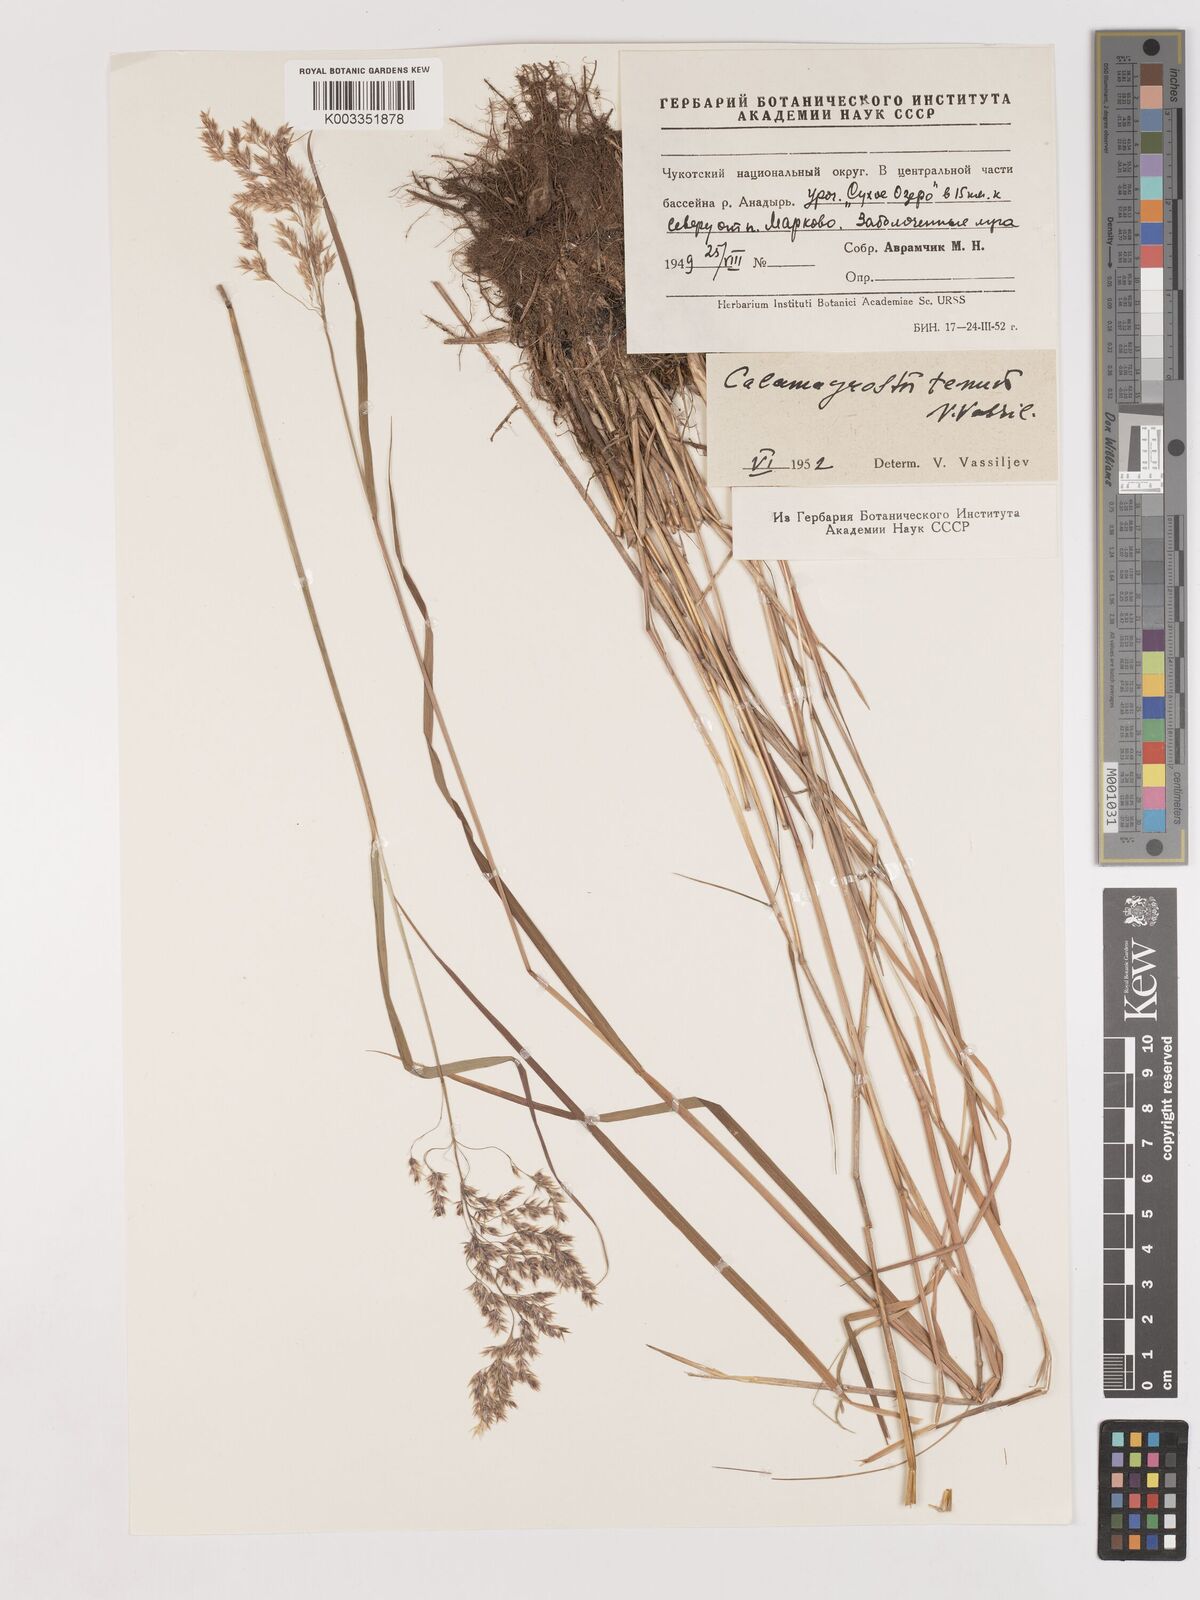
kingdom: Plantae
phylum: Tracheophyta
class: Liliopsida
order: Poales
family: Poaceae
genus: Calamagrostis
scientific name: Calamagrostis angustifolia
